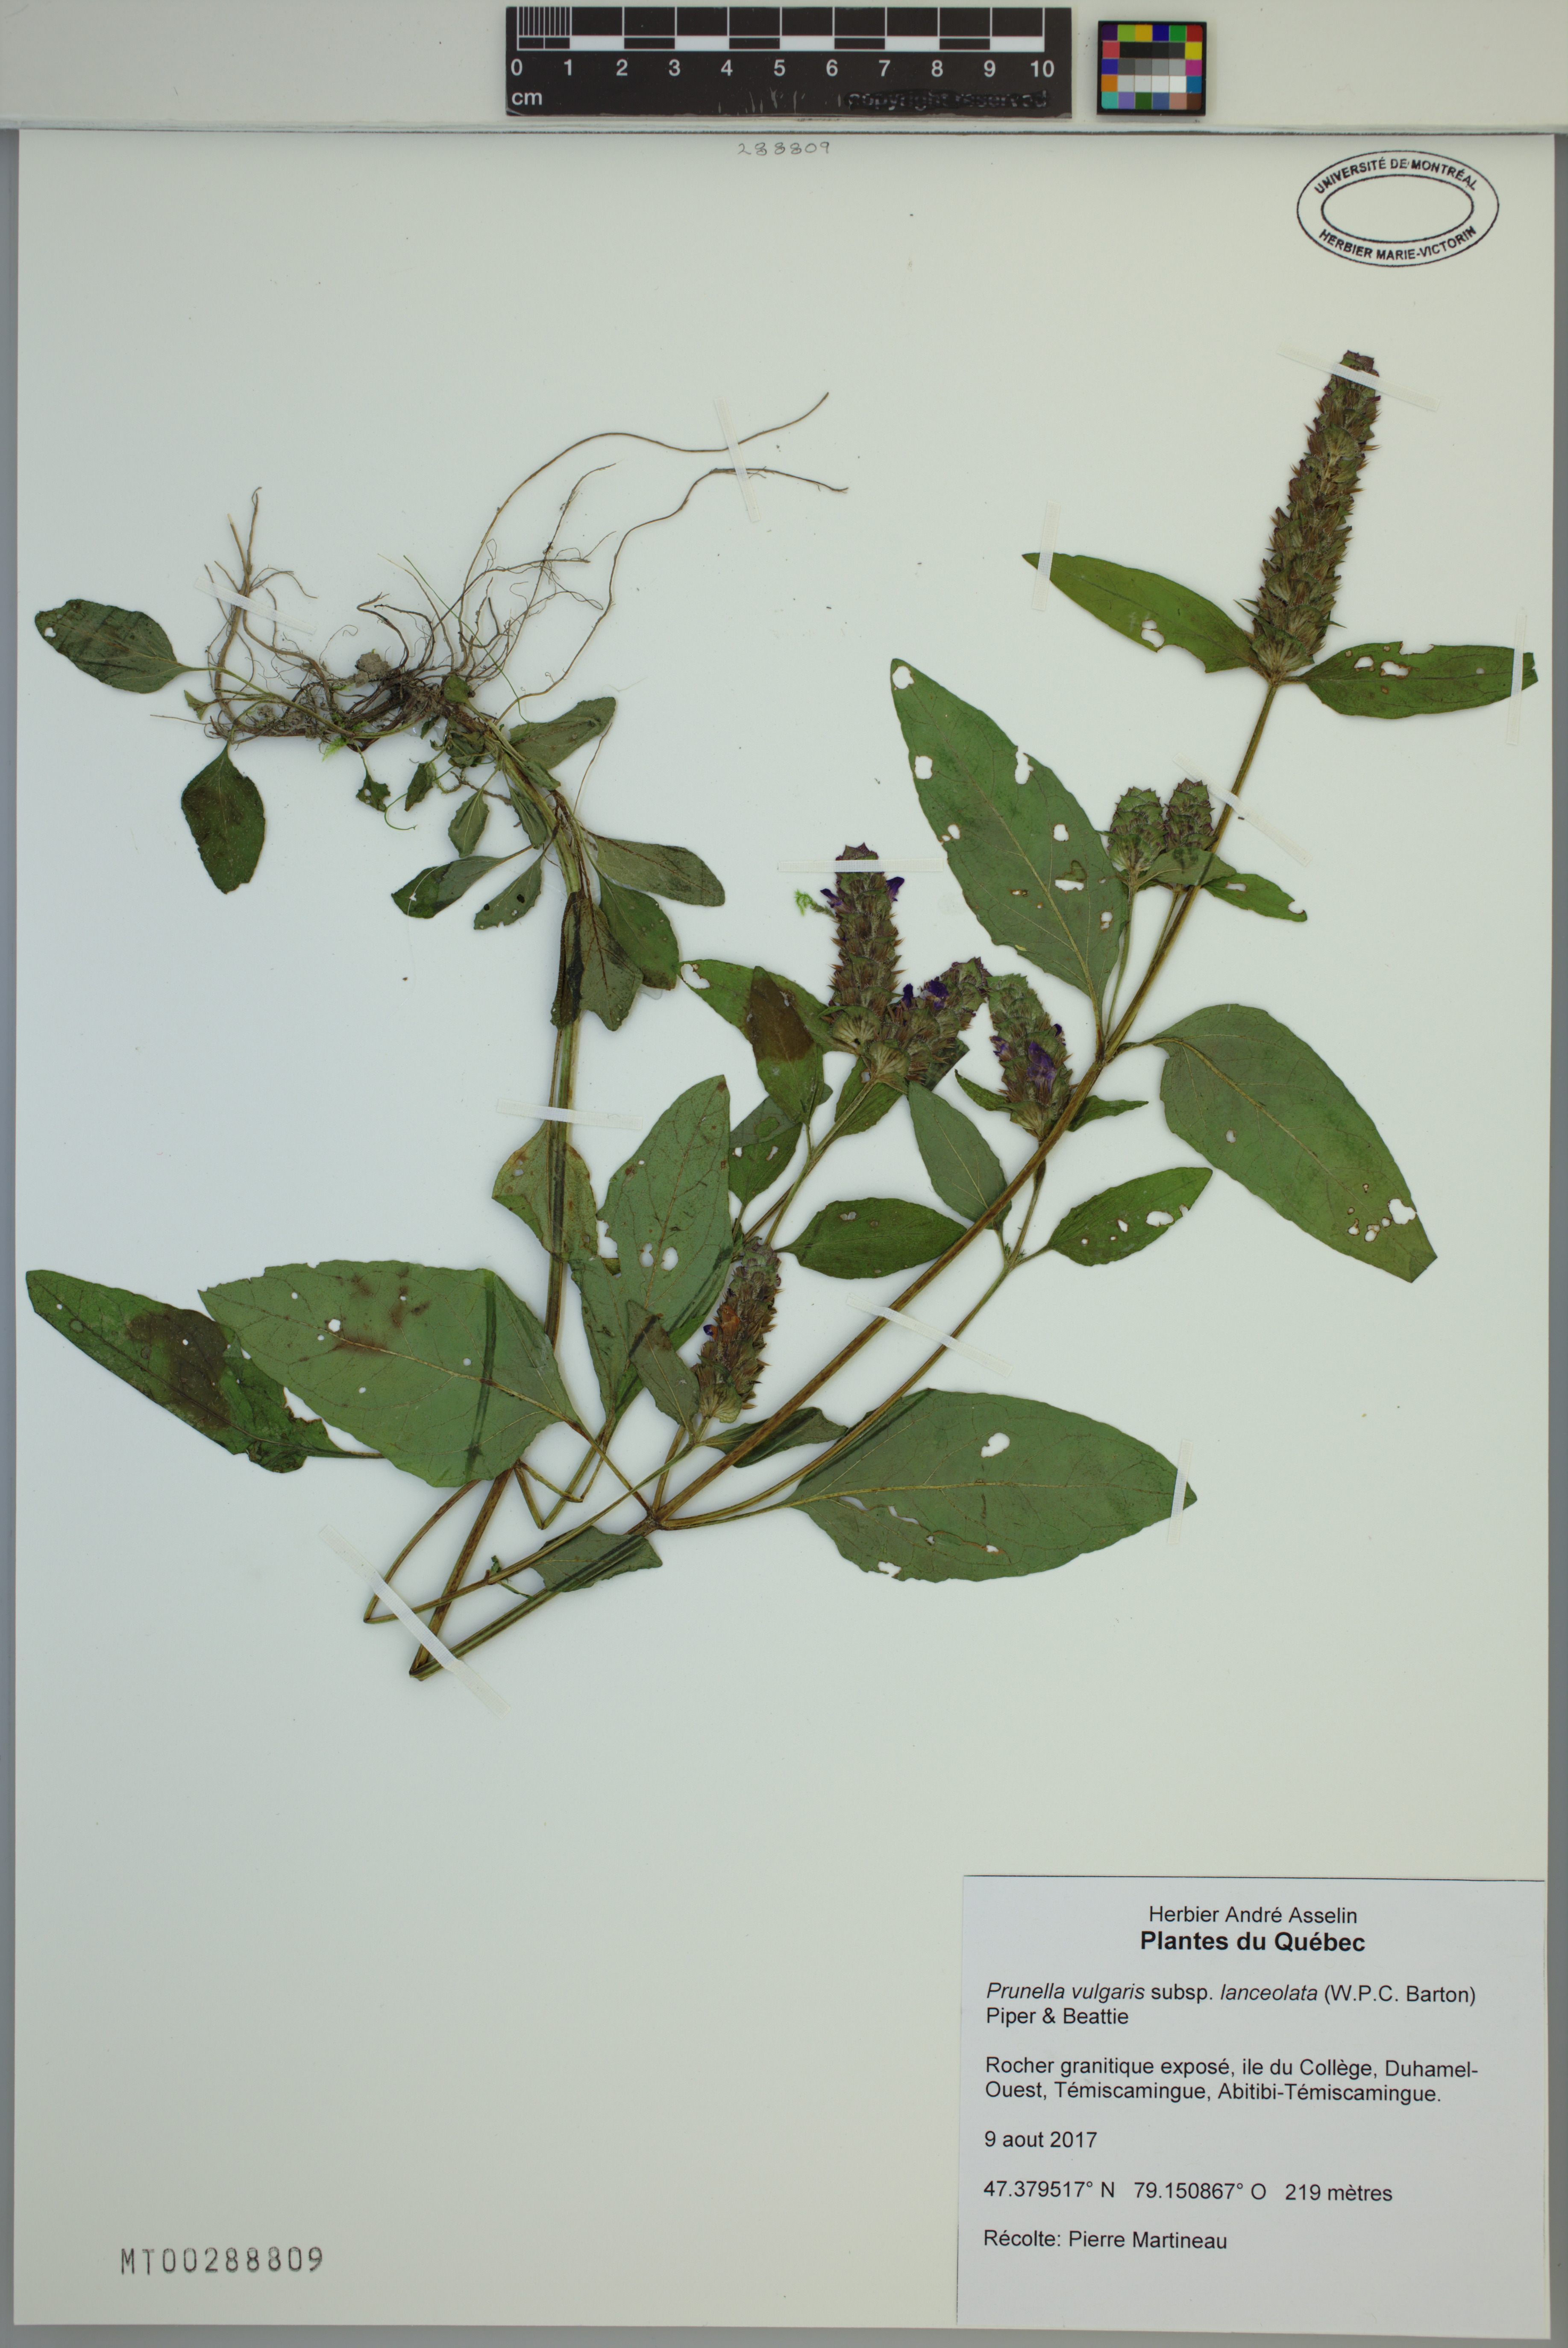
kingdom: Plantae
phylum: Tracheophyta
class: Magnoliopsida
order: Lamiales
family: Lamiaceae
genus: Prunella
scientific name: Prunella vulgaris
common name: Heal-all
